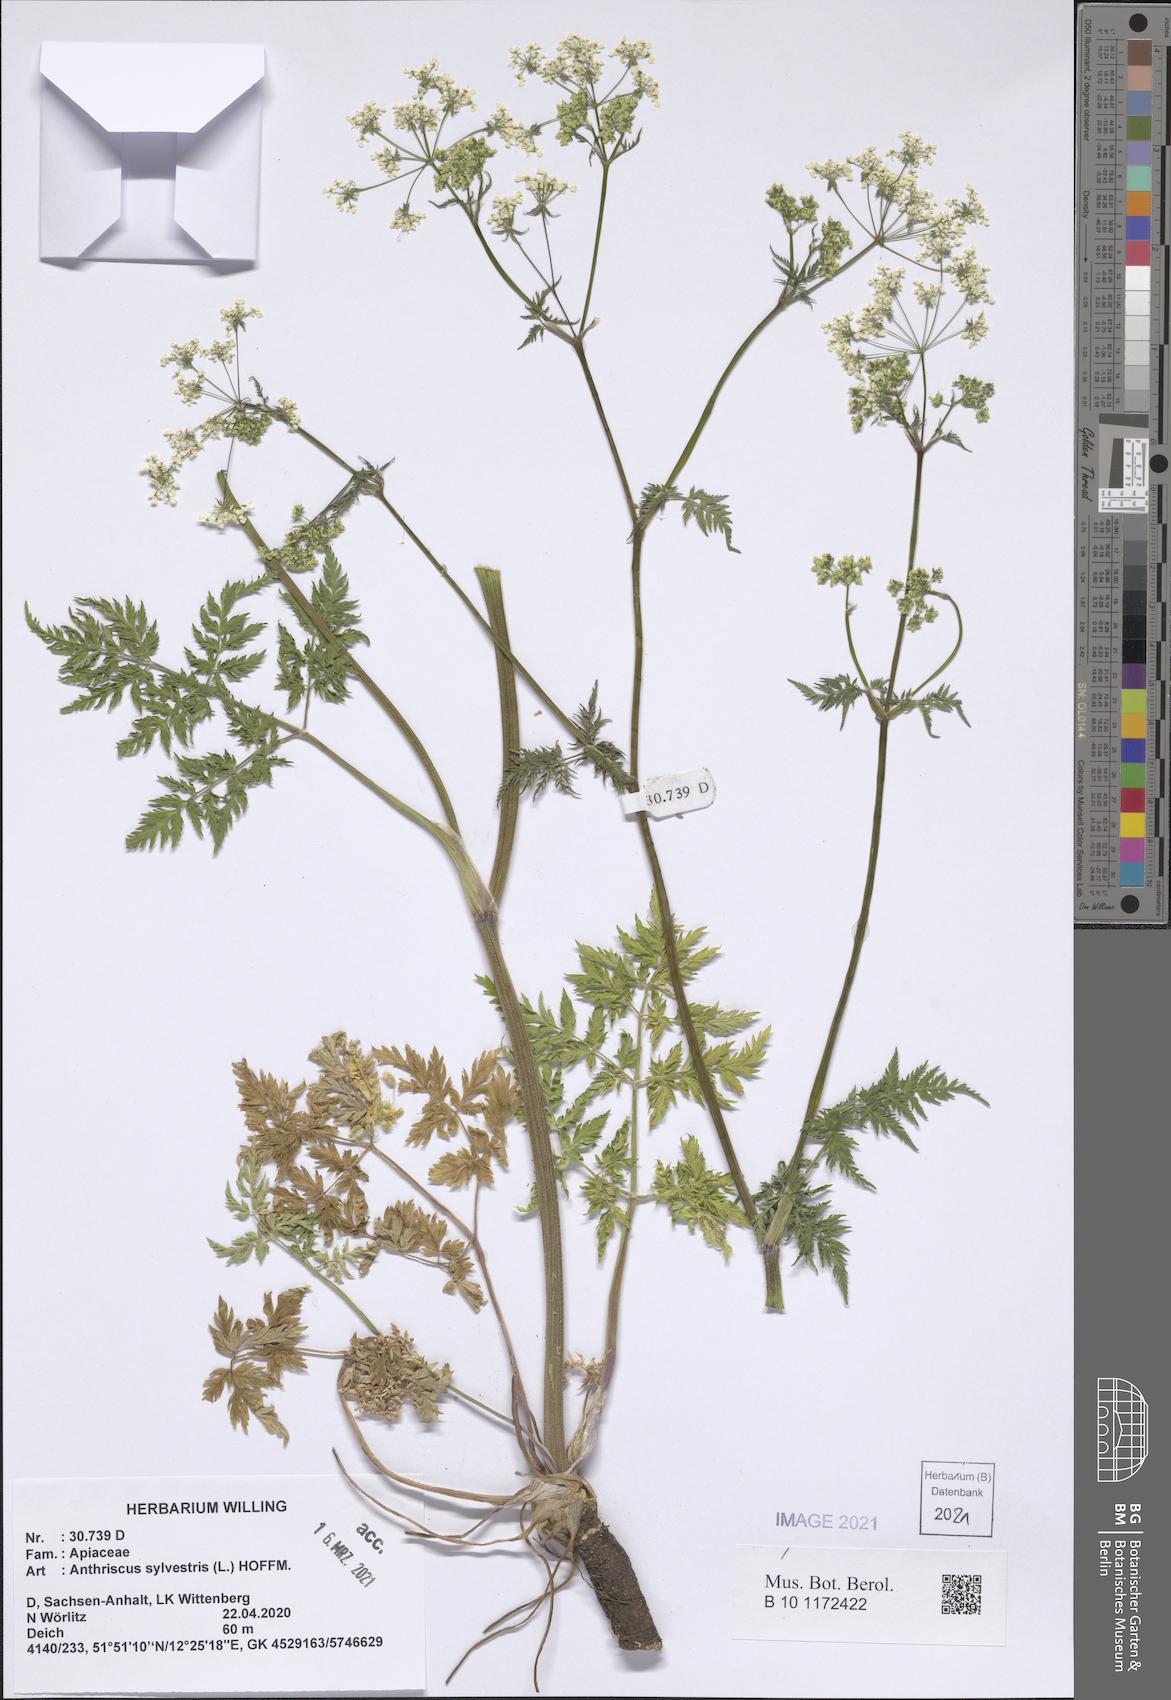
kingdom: Plantae
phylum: Tracheophyta
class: Magnoliopsida
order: Apiales
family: Apiaceae
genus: Anthriscus
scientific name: Anthriscus sylvestris
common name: Cow parsley
